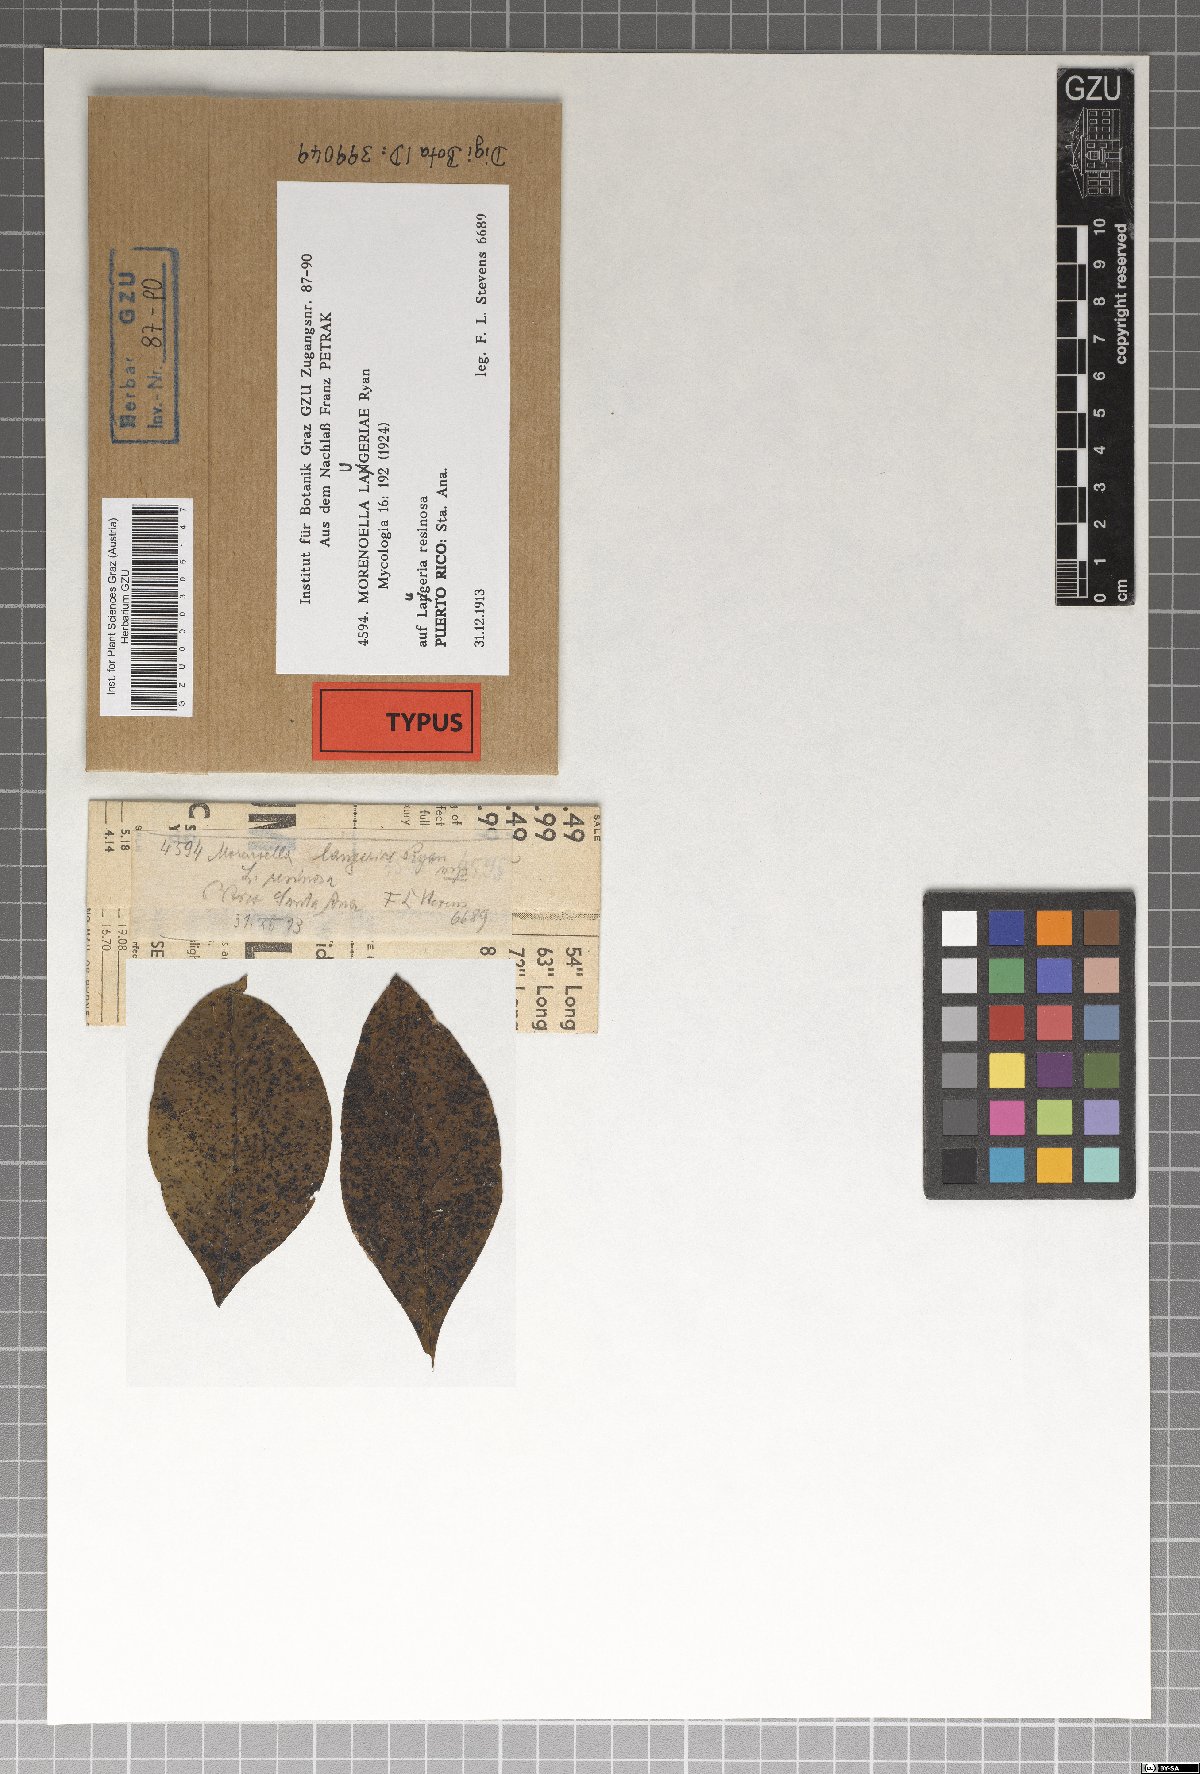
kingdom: Fungi
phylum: Ascomycota
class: Dothideomycetes
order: Asterinales
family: Asterinaceae
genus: Lembosia
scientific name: Lembosia laugeriae
